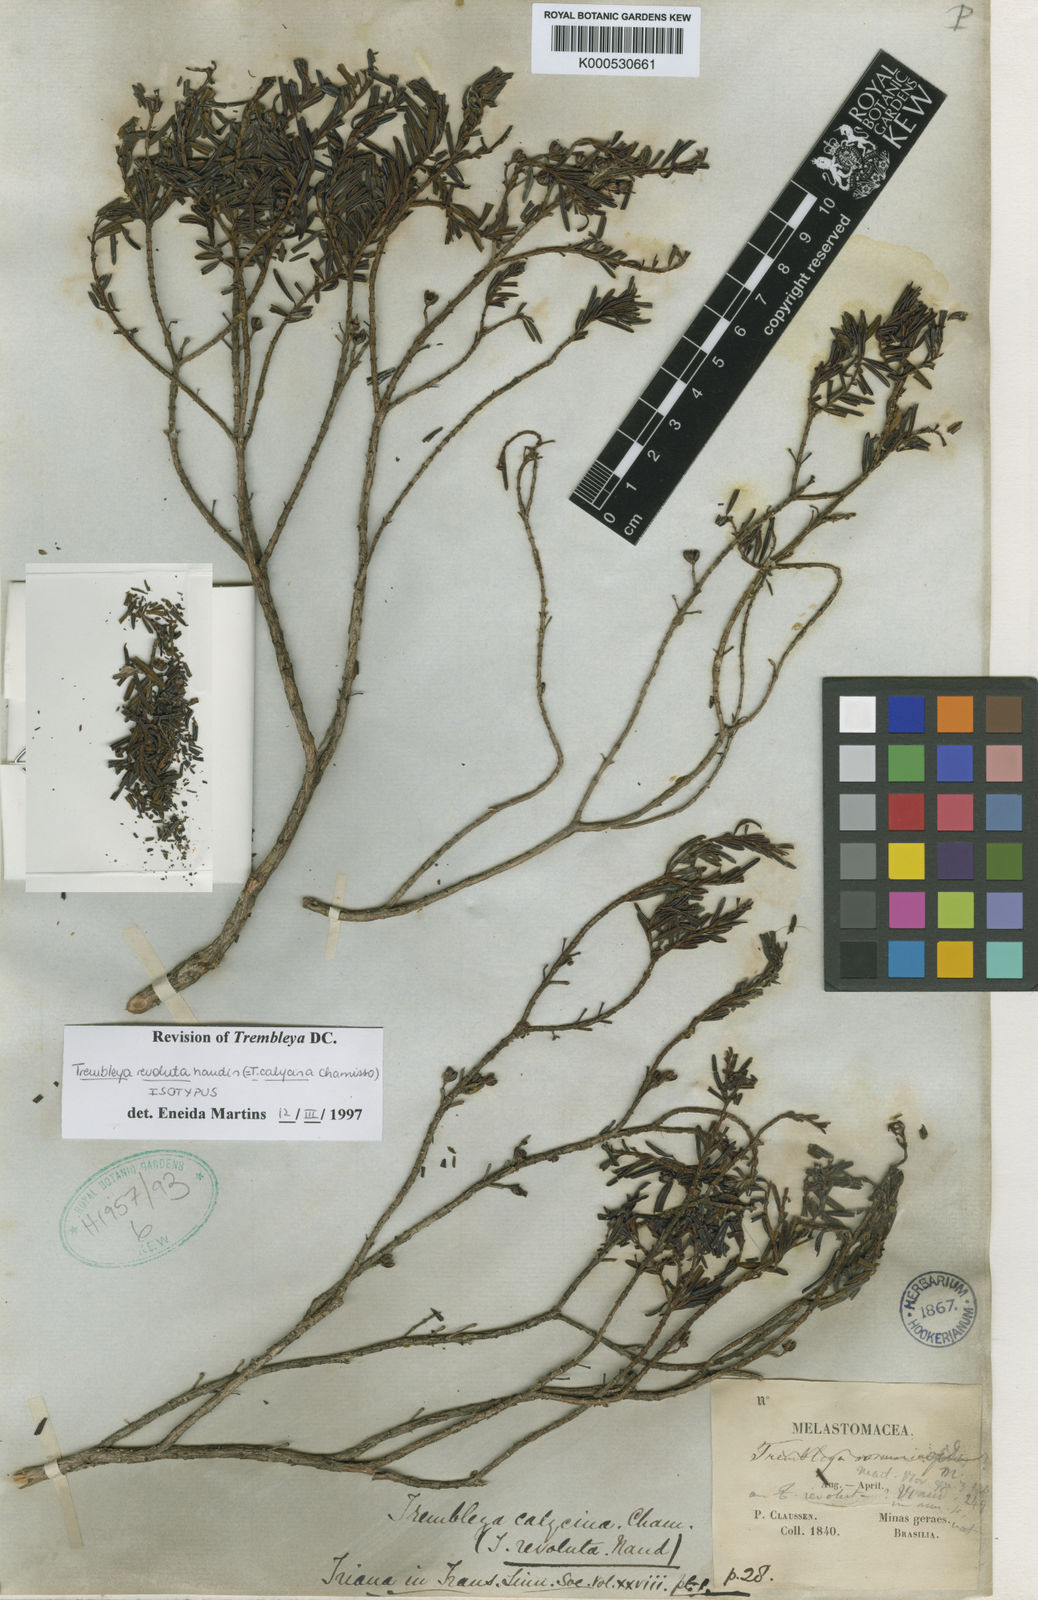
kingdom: Plantae
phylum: Tracheophyta
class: Magnoliopsida
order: Myrtales
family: Melastomataceae
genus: Microlicia
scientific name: Microlicia calycina
